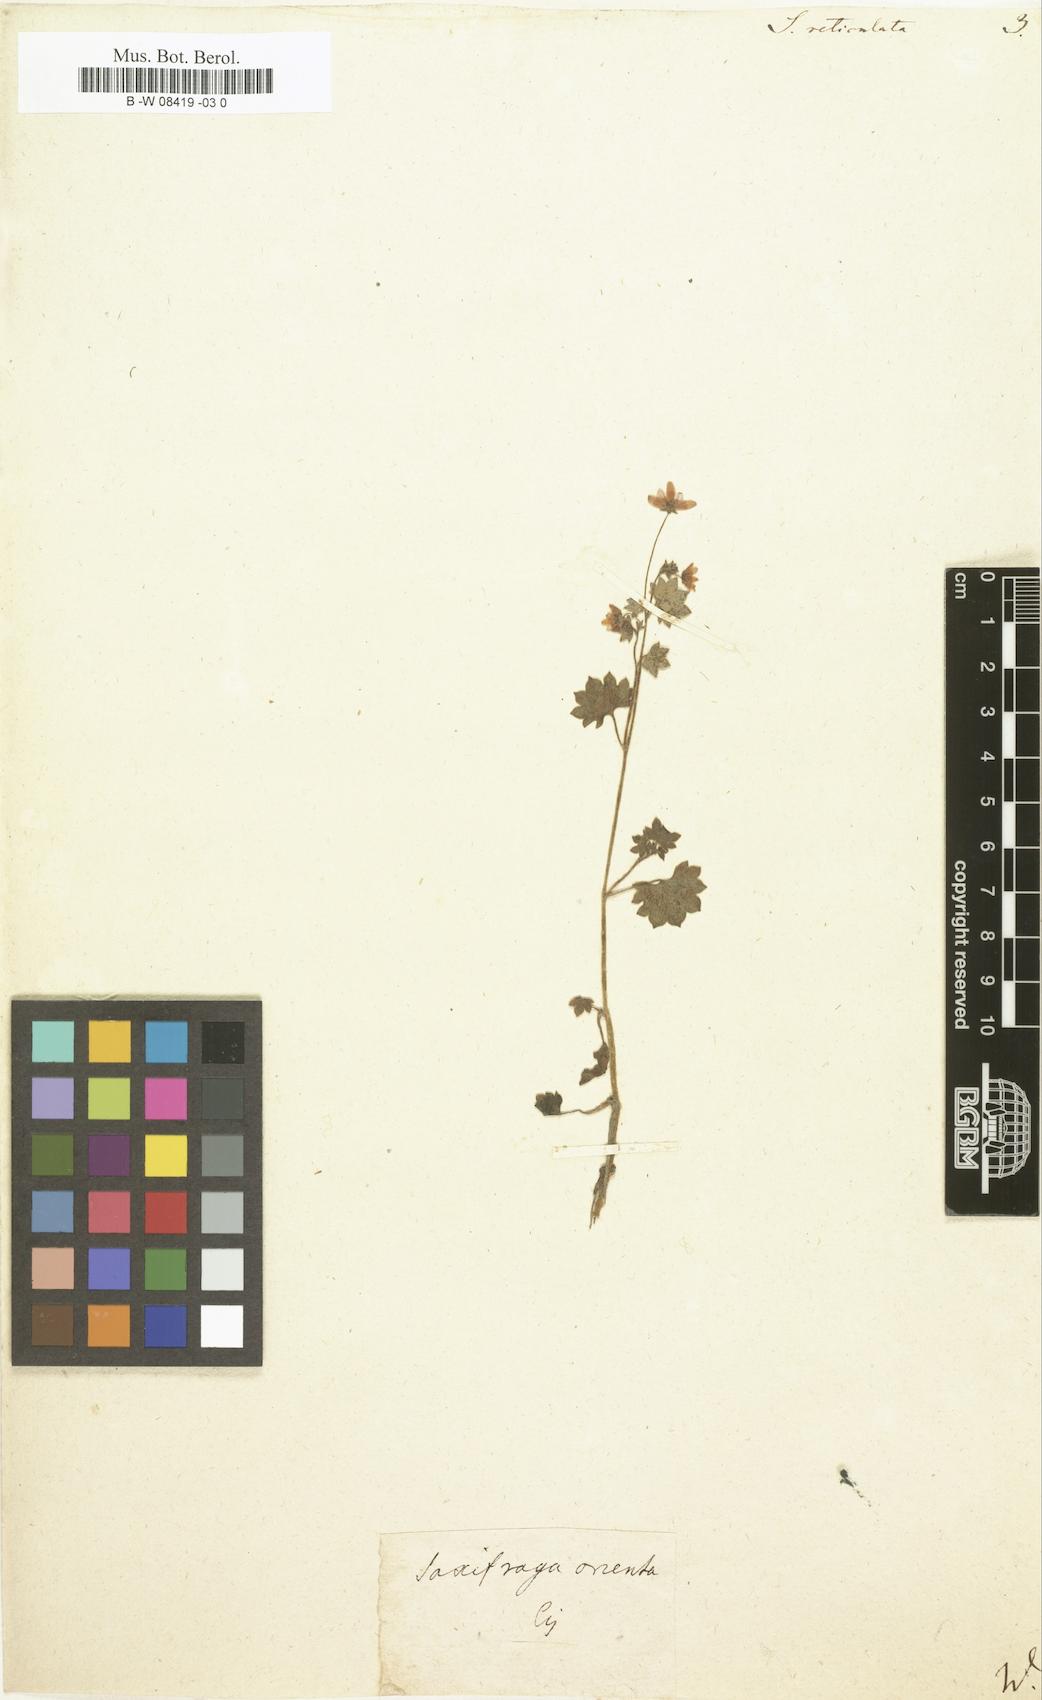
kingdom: Plantae
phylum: Tracheophyta
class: Magnoliopsida
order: Saxifragales
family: Saxifragaceae
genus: Saxifraga
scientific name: Saxifraga
